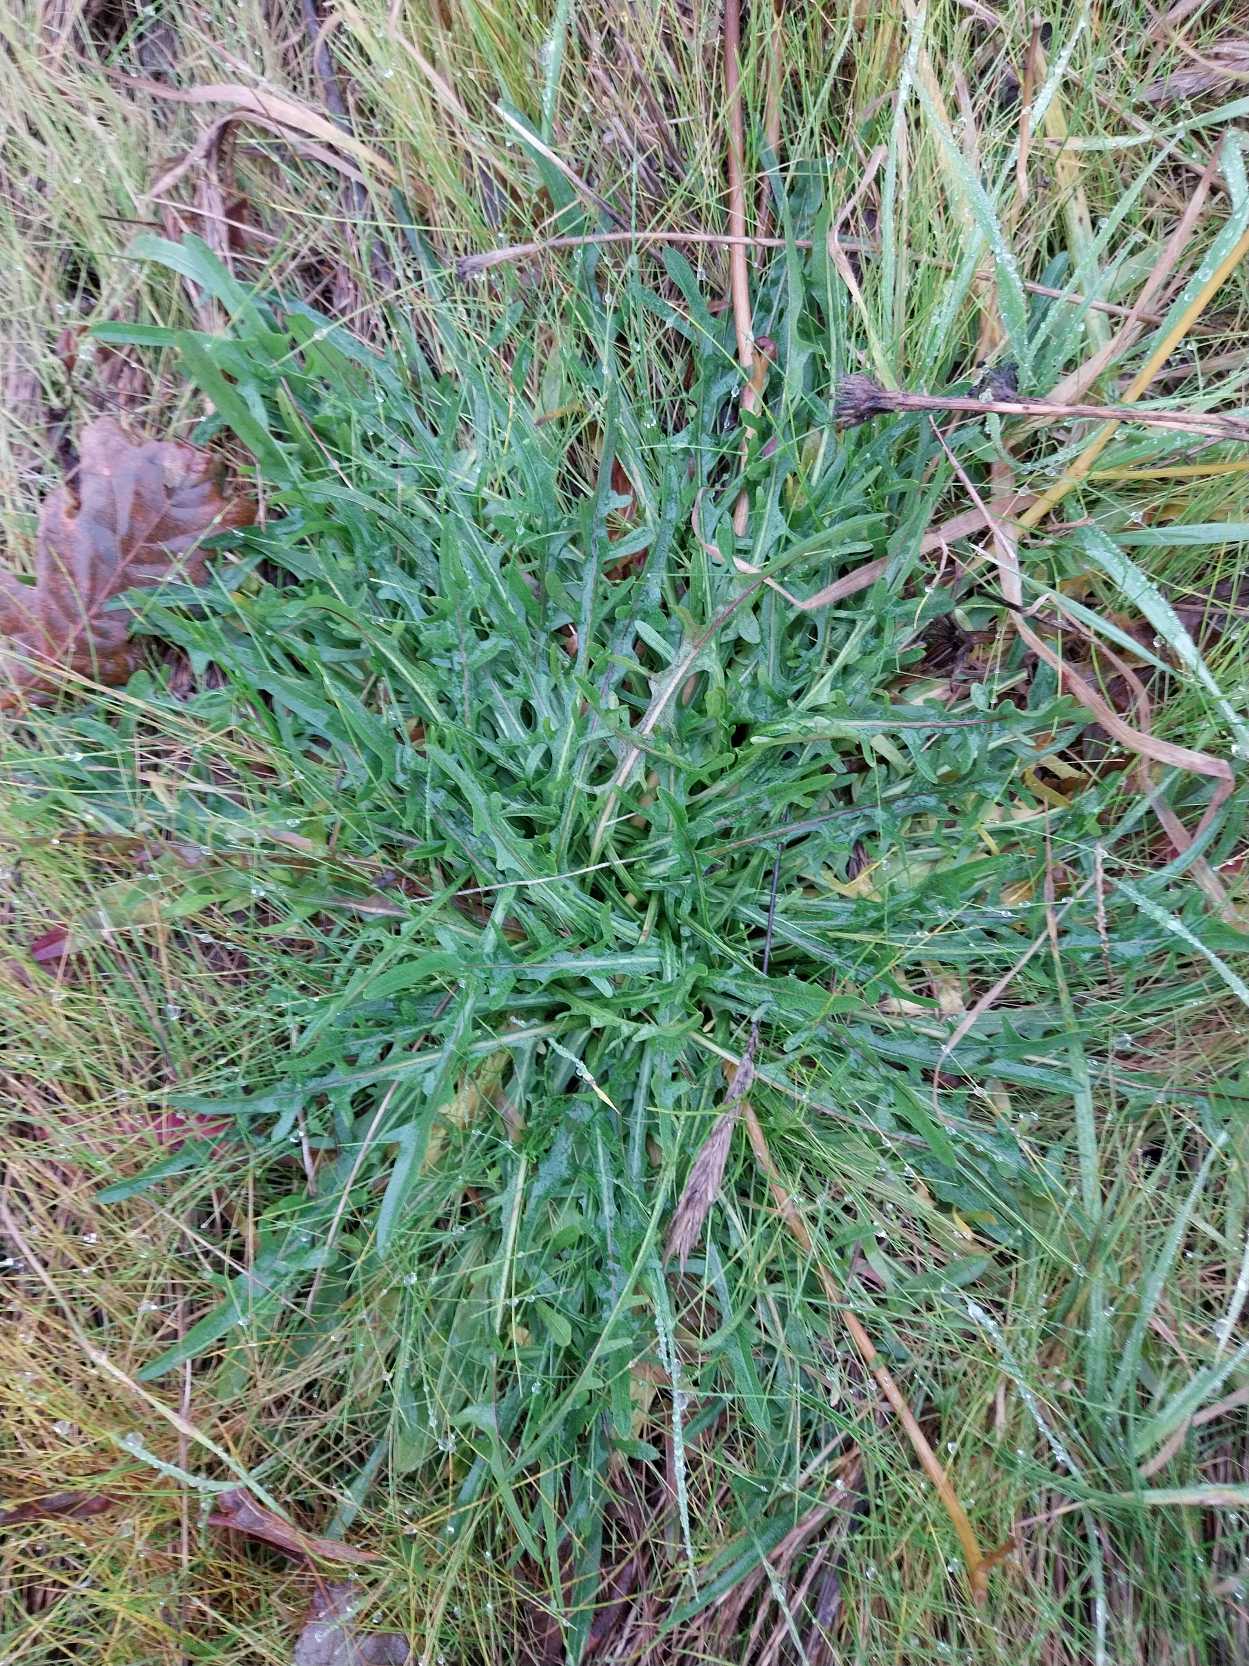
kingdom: Plantae
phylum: Tracheophyta
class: Magnoliopsida
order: Asterales
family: Asteraceae
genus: Scorzoneroides
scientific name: Scorzoneroides autumnalis
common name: Høst-borst
